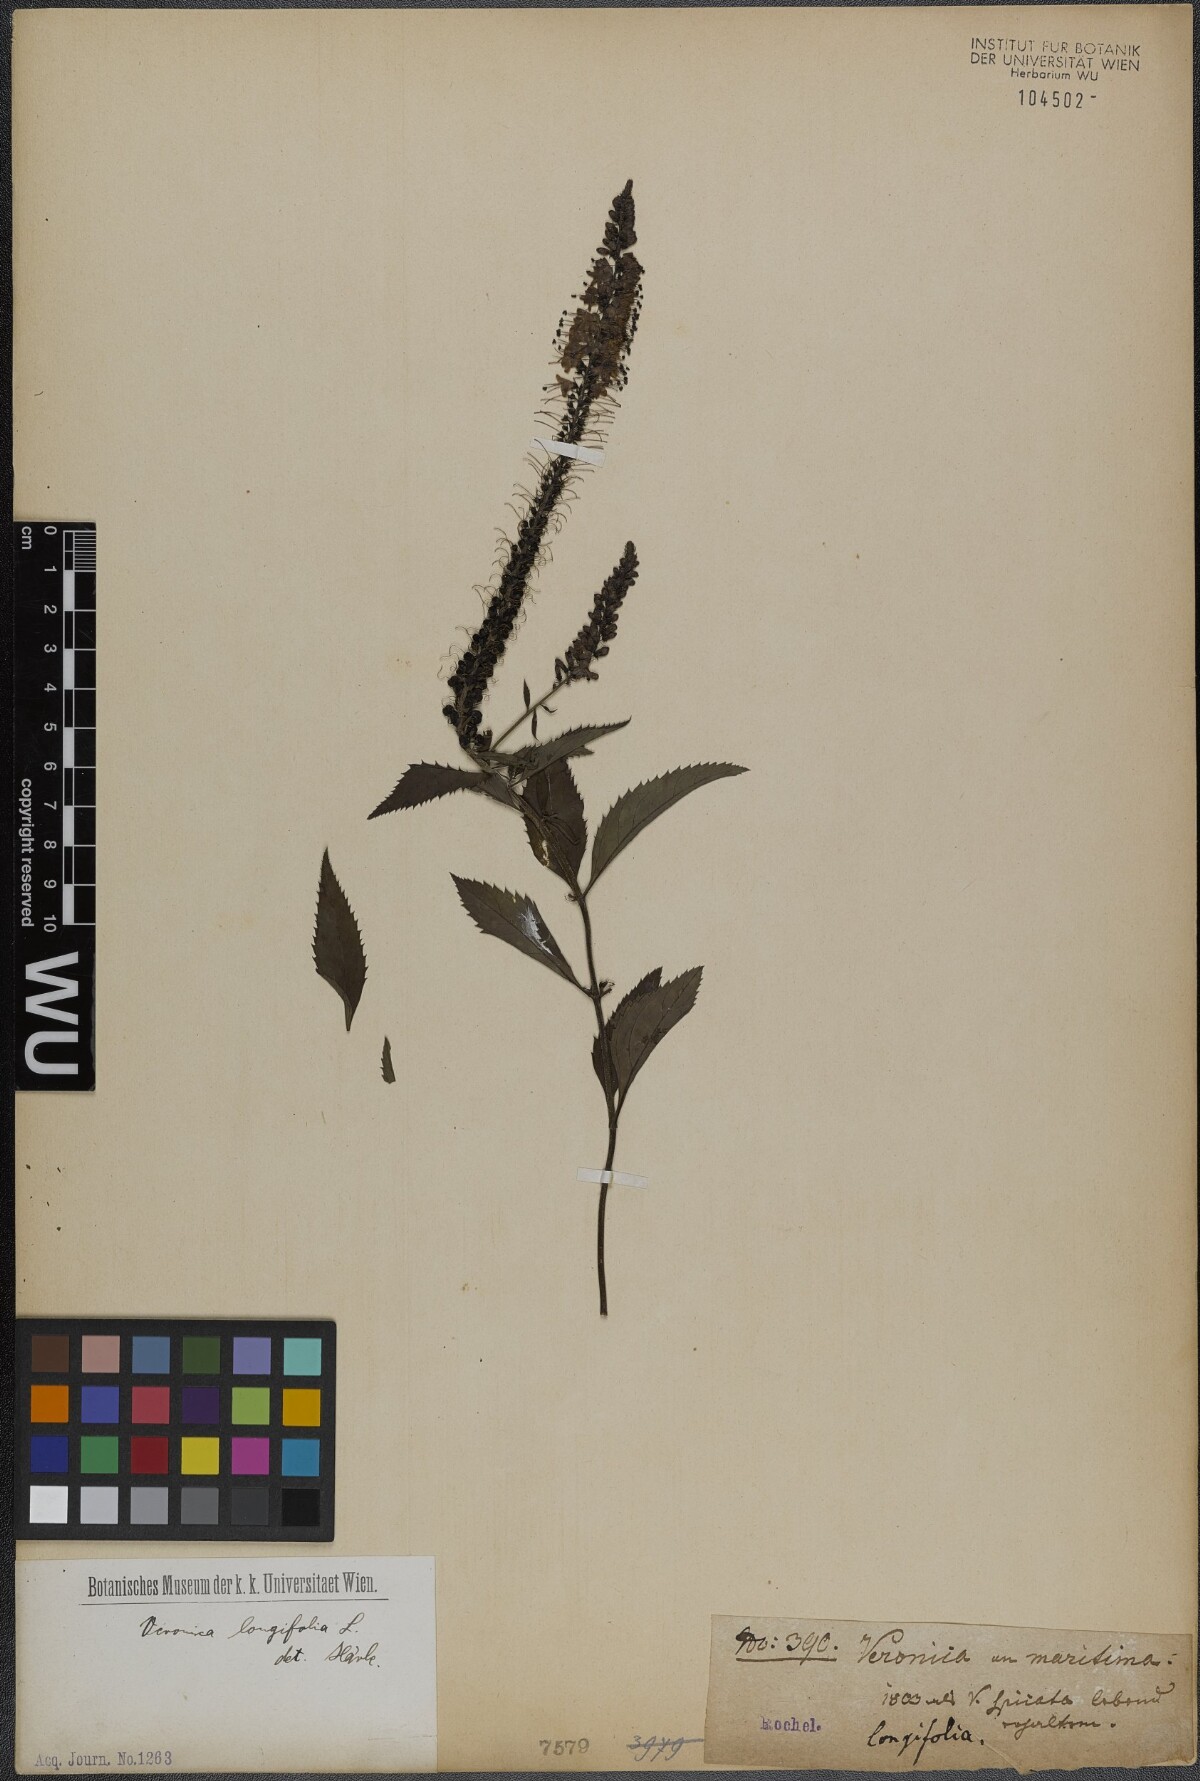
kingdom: Plantae
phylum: Tracheophyta
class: Magnoliopsida
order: Lamiales
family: Plantaginaceae
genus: Veronica
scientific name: Veronica longifolia
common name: Garden speedwell
